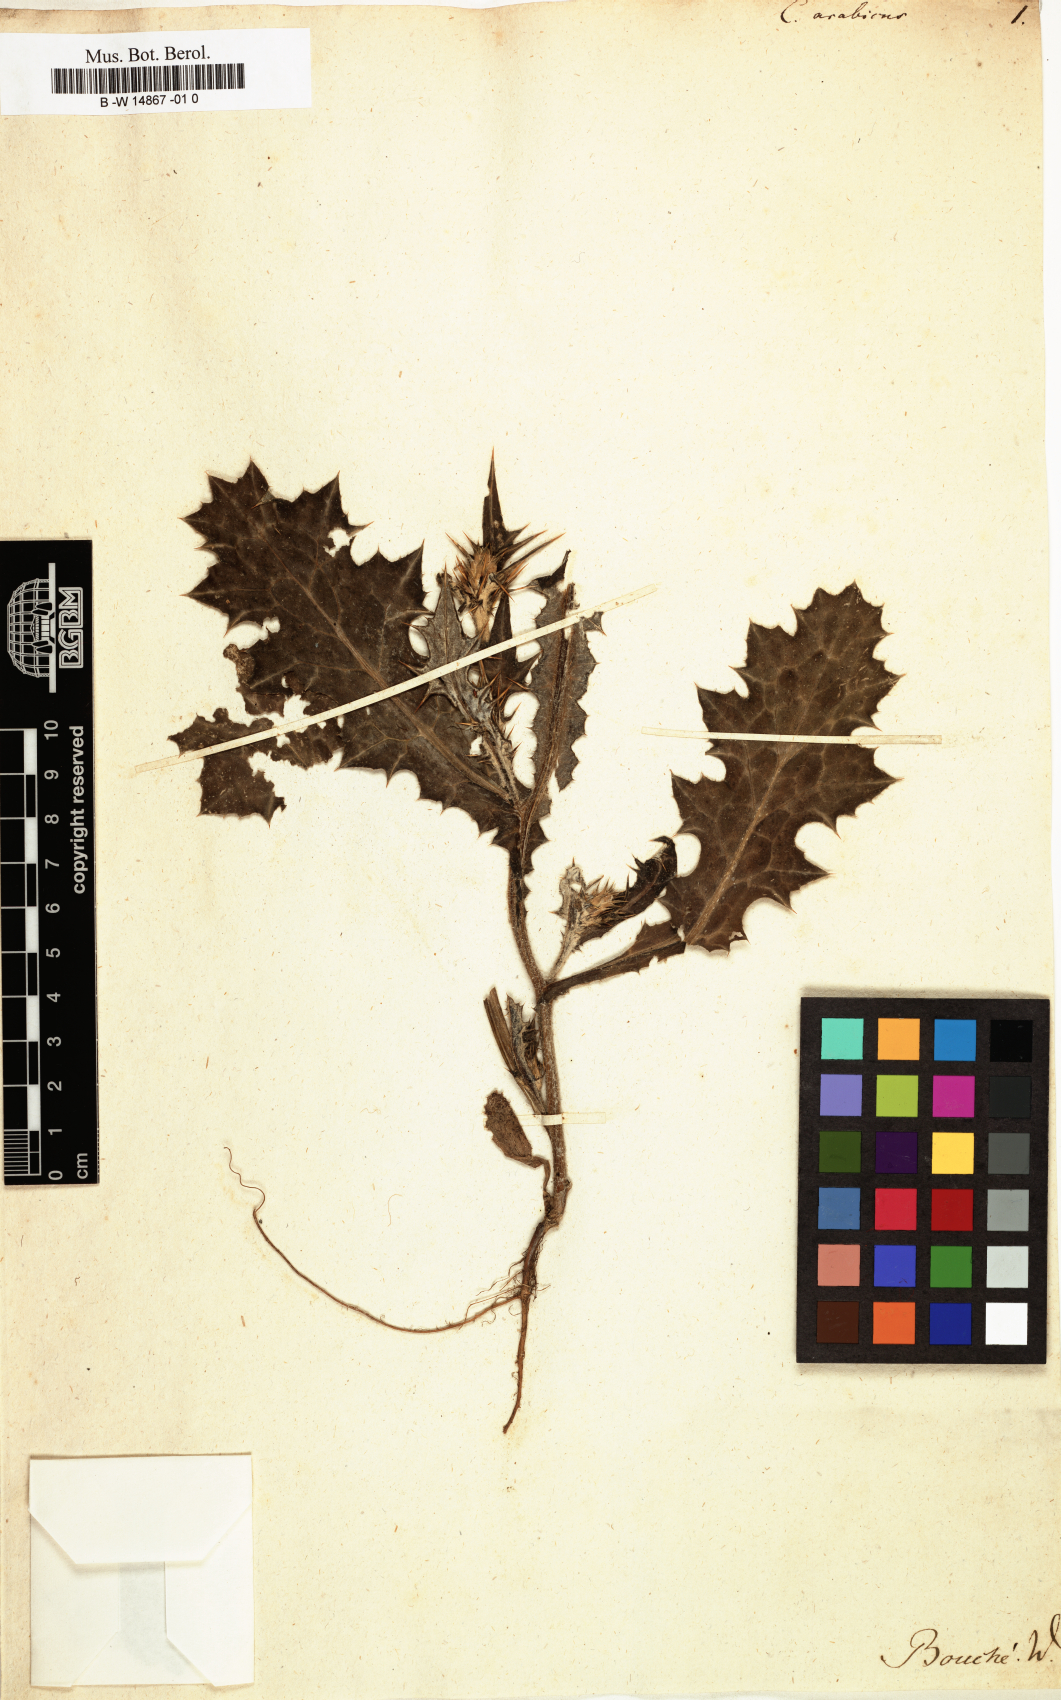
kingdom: Plantae
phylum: Tracheophyta
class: Magnoliopsida
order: Asterales
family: Asteraceae
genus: Carduus
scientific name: Carduus arabicus
